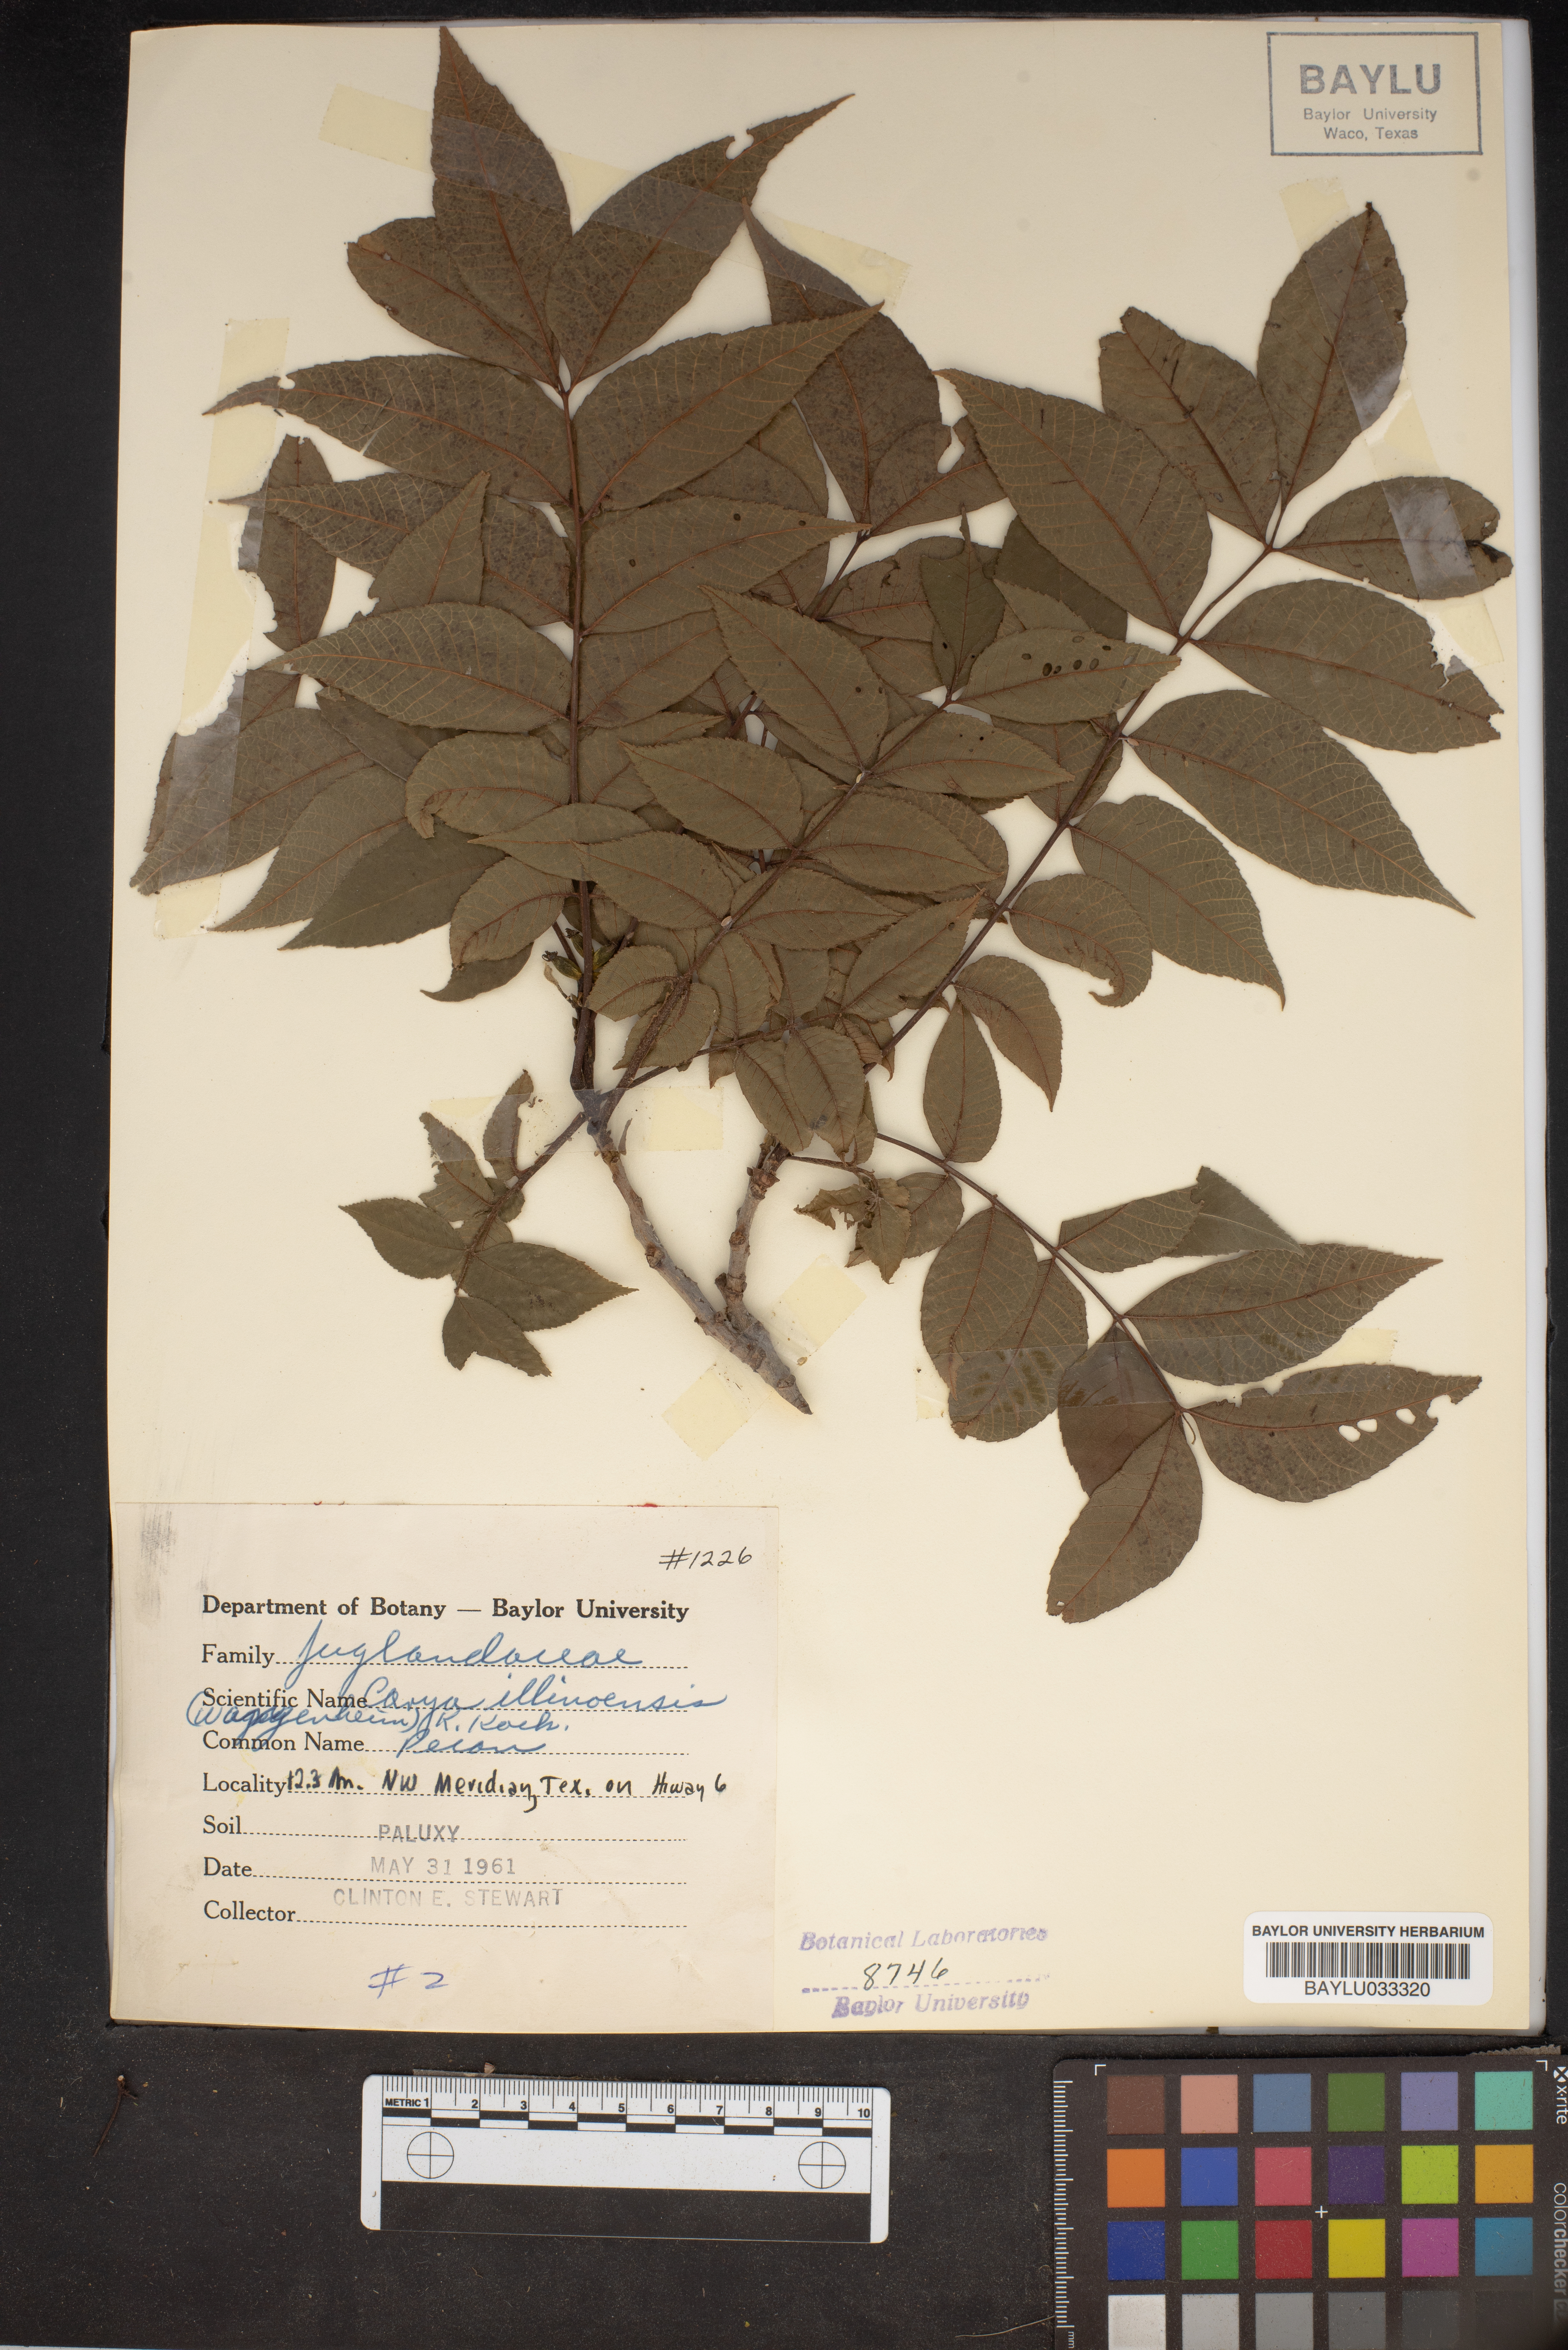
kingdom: Plantae
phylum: Tracheophyta
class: Magnoliopsida
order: Fagales
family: Juglandaceae
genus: Carya
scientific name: Carya illinoinensis
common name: Pecan
